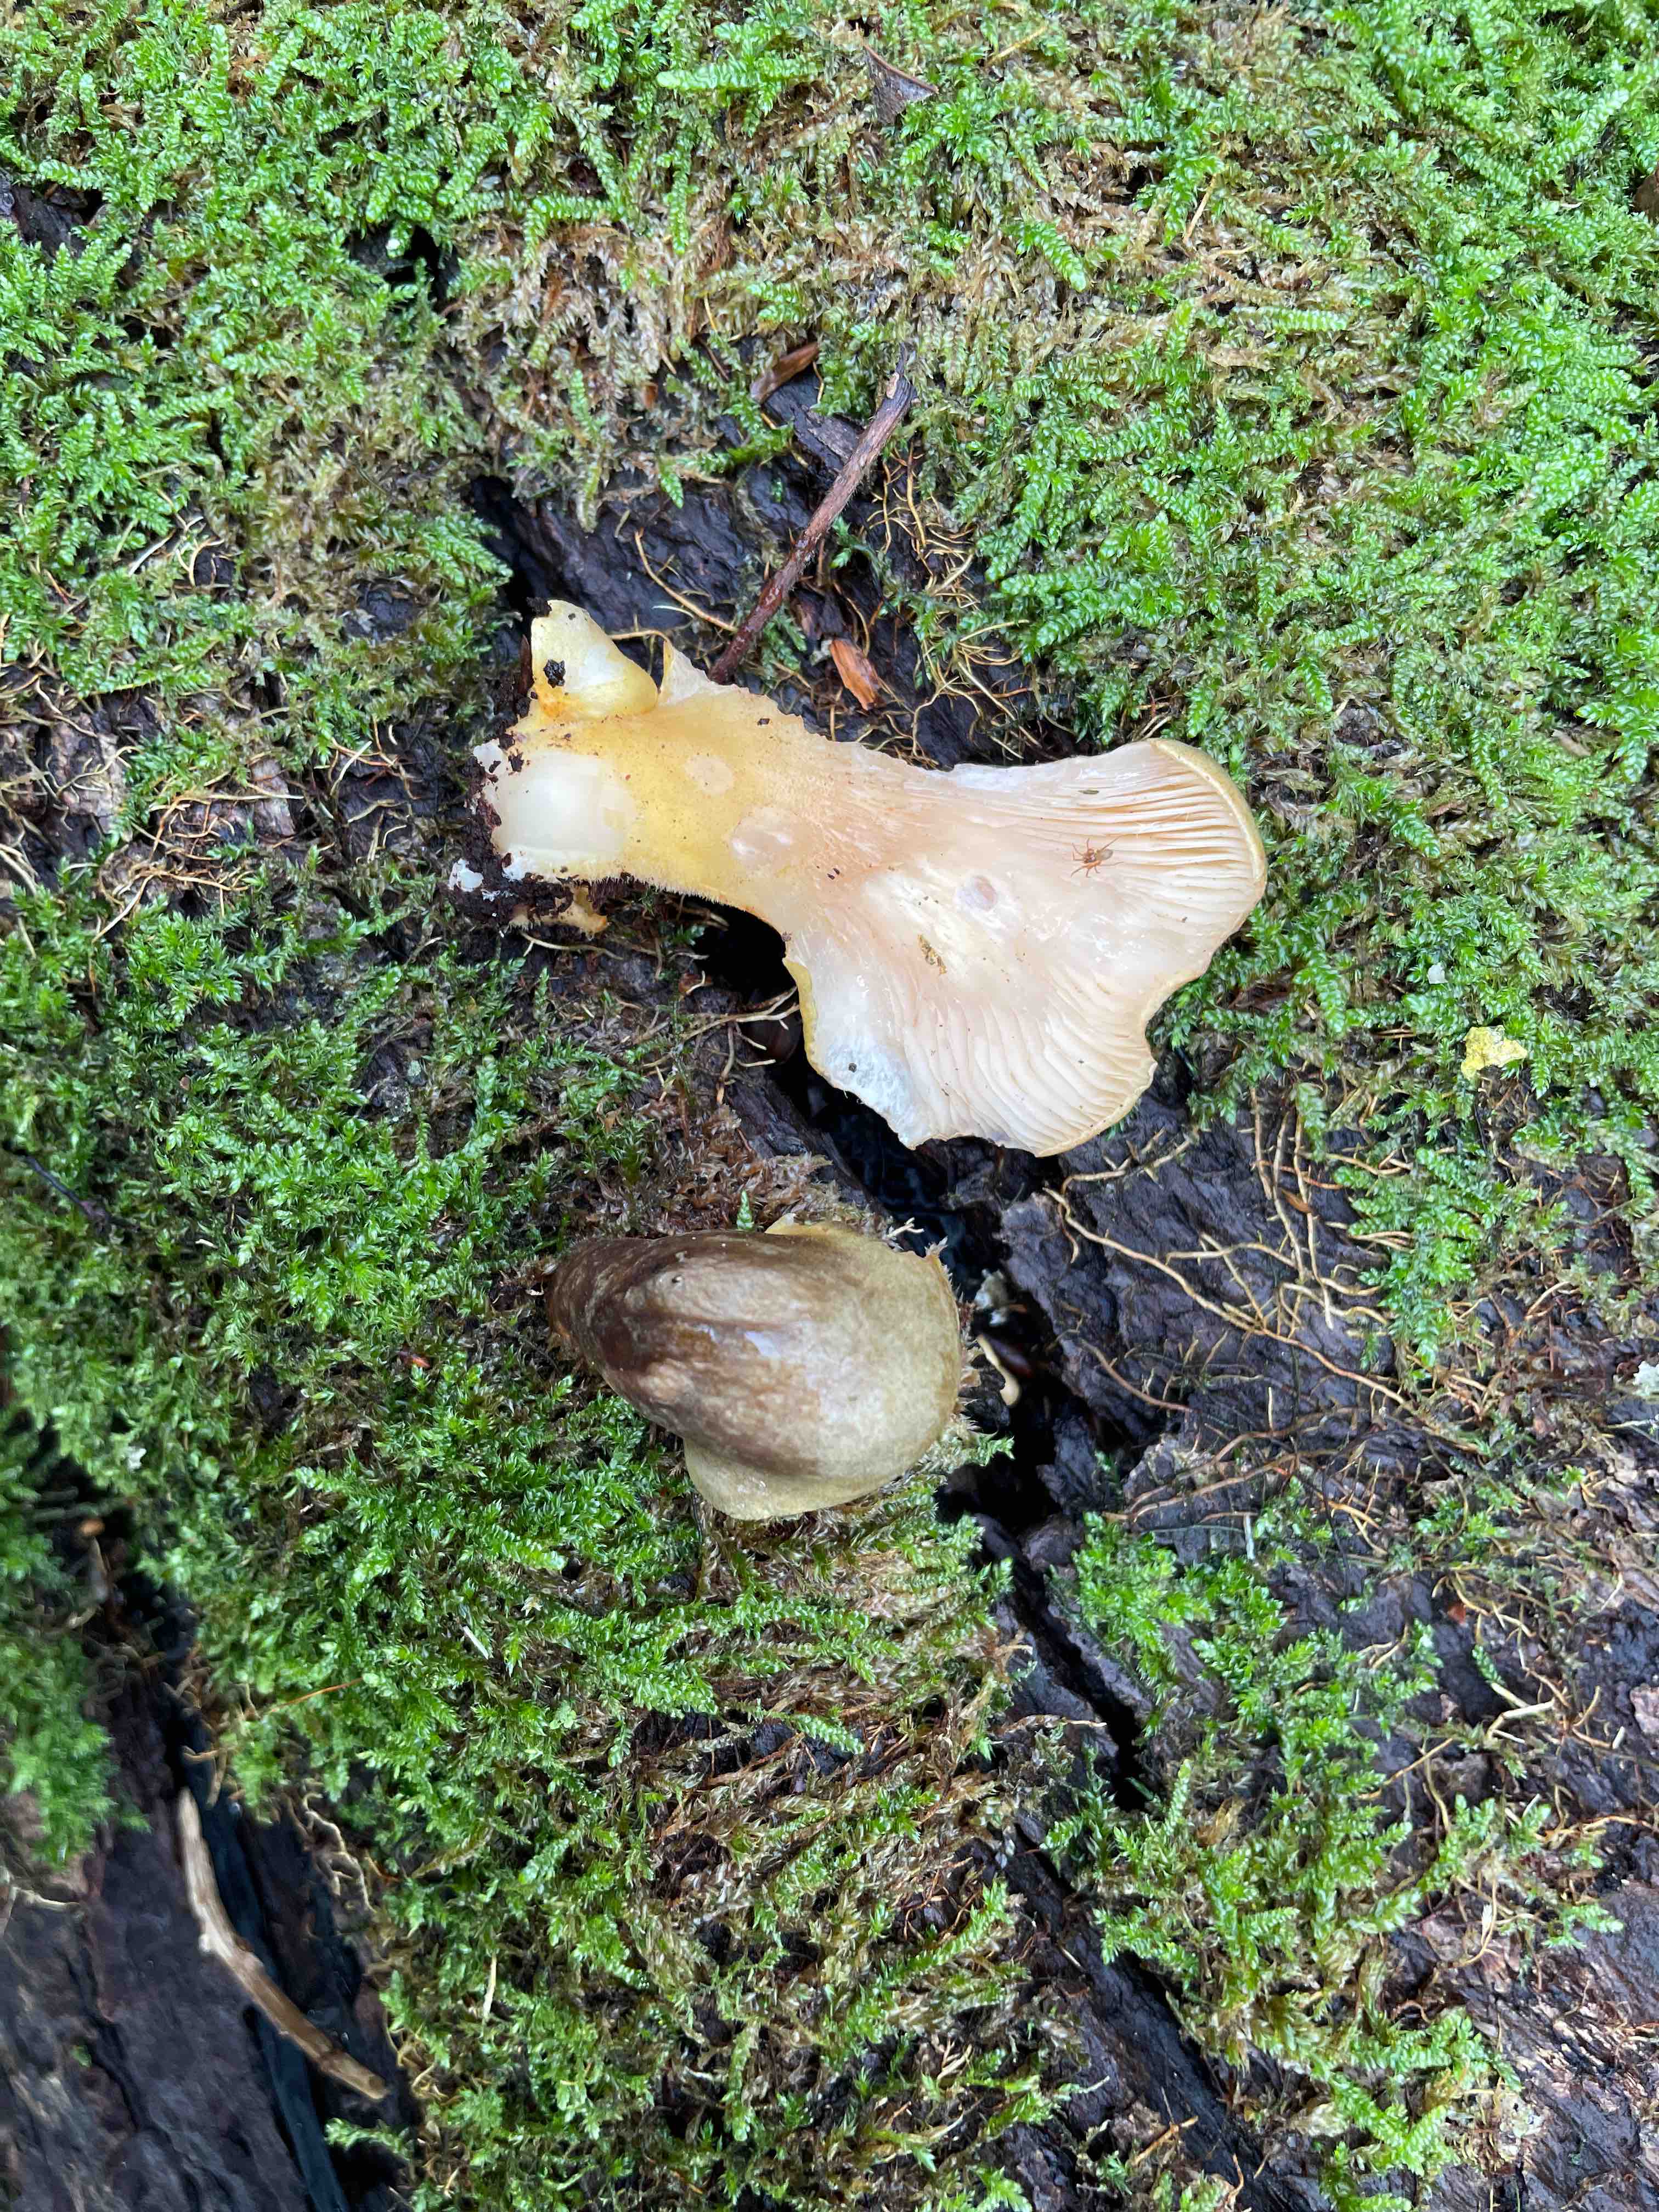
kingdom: Fungi
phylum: Basidiomycota
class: Agaricomycetes
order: Agaricales
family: Sarcomyxaceae
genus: Sarcomyxa
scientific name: Sarcomyxa serotina
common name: gummihat
